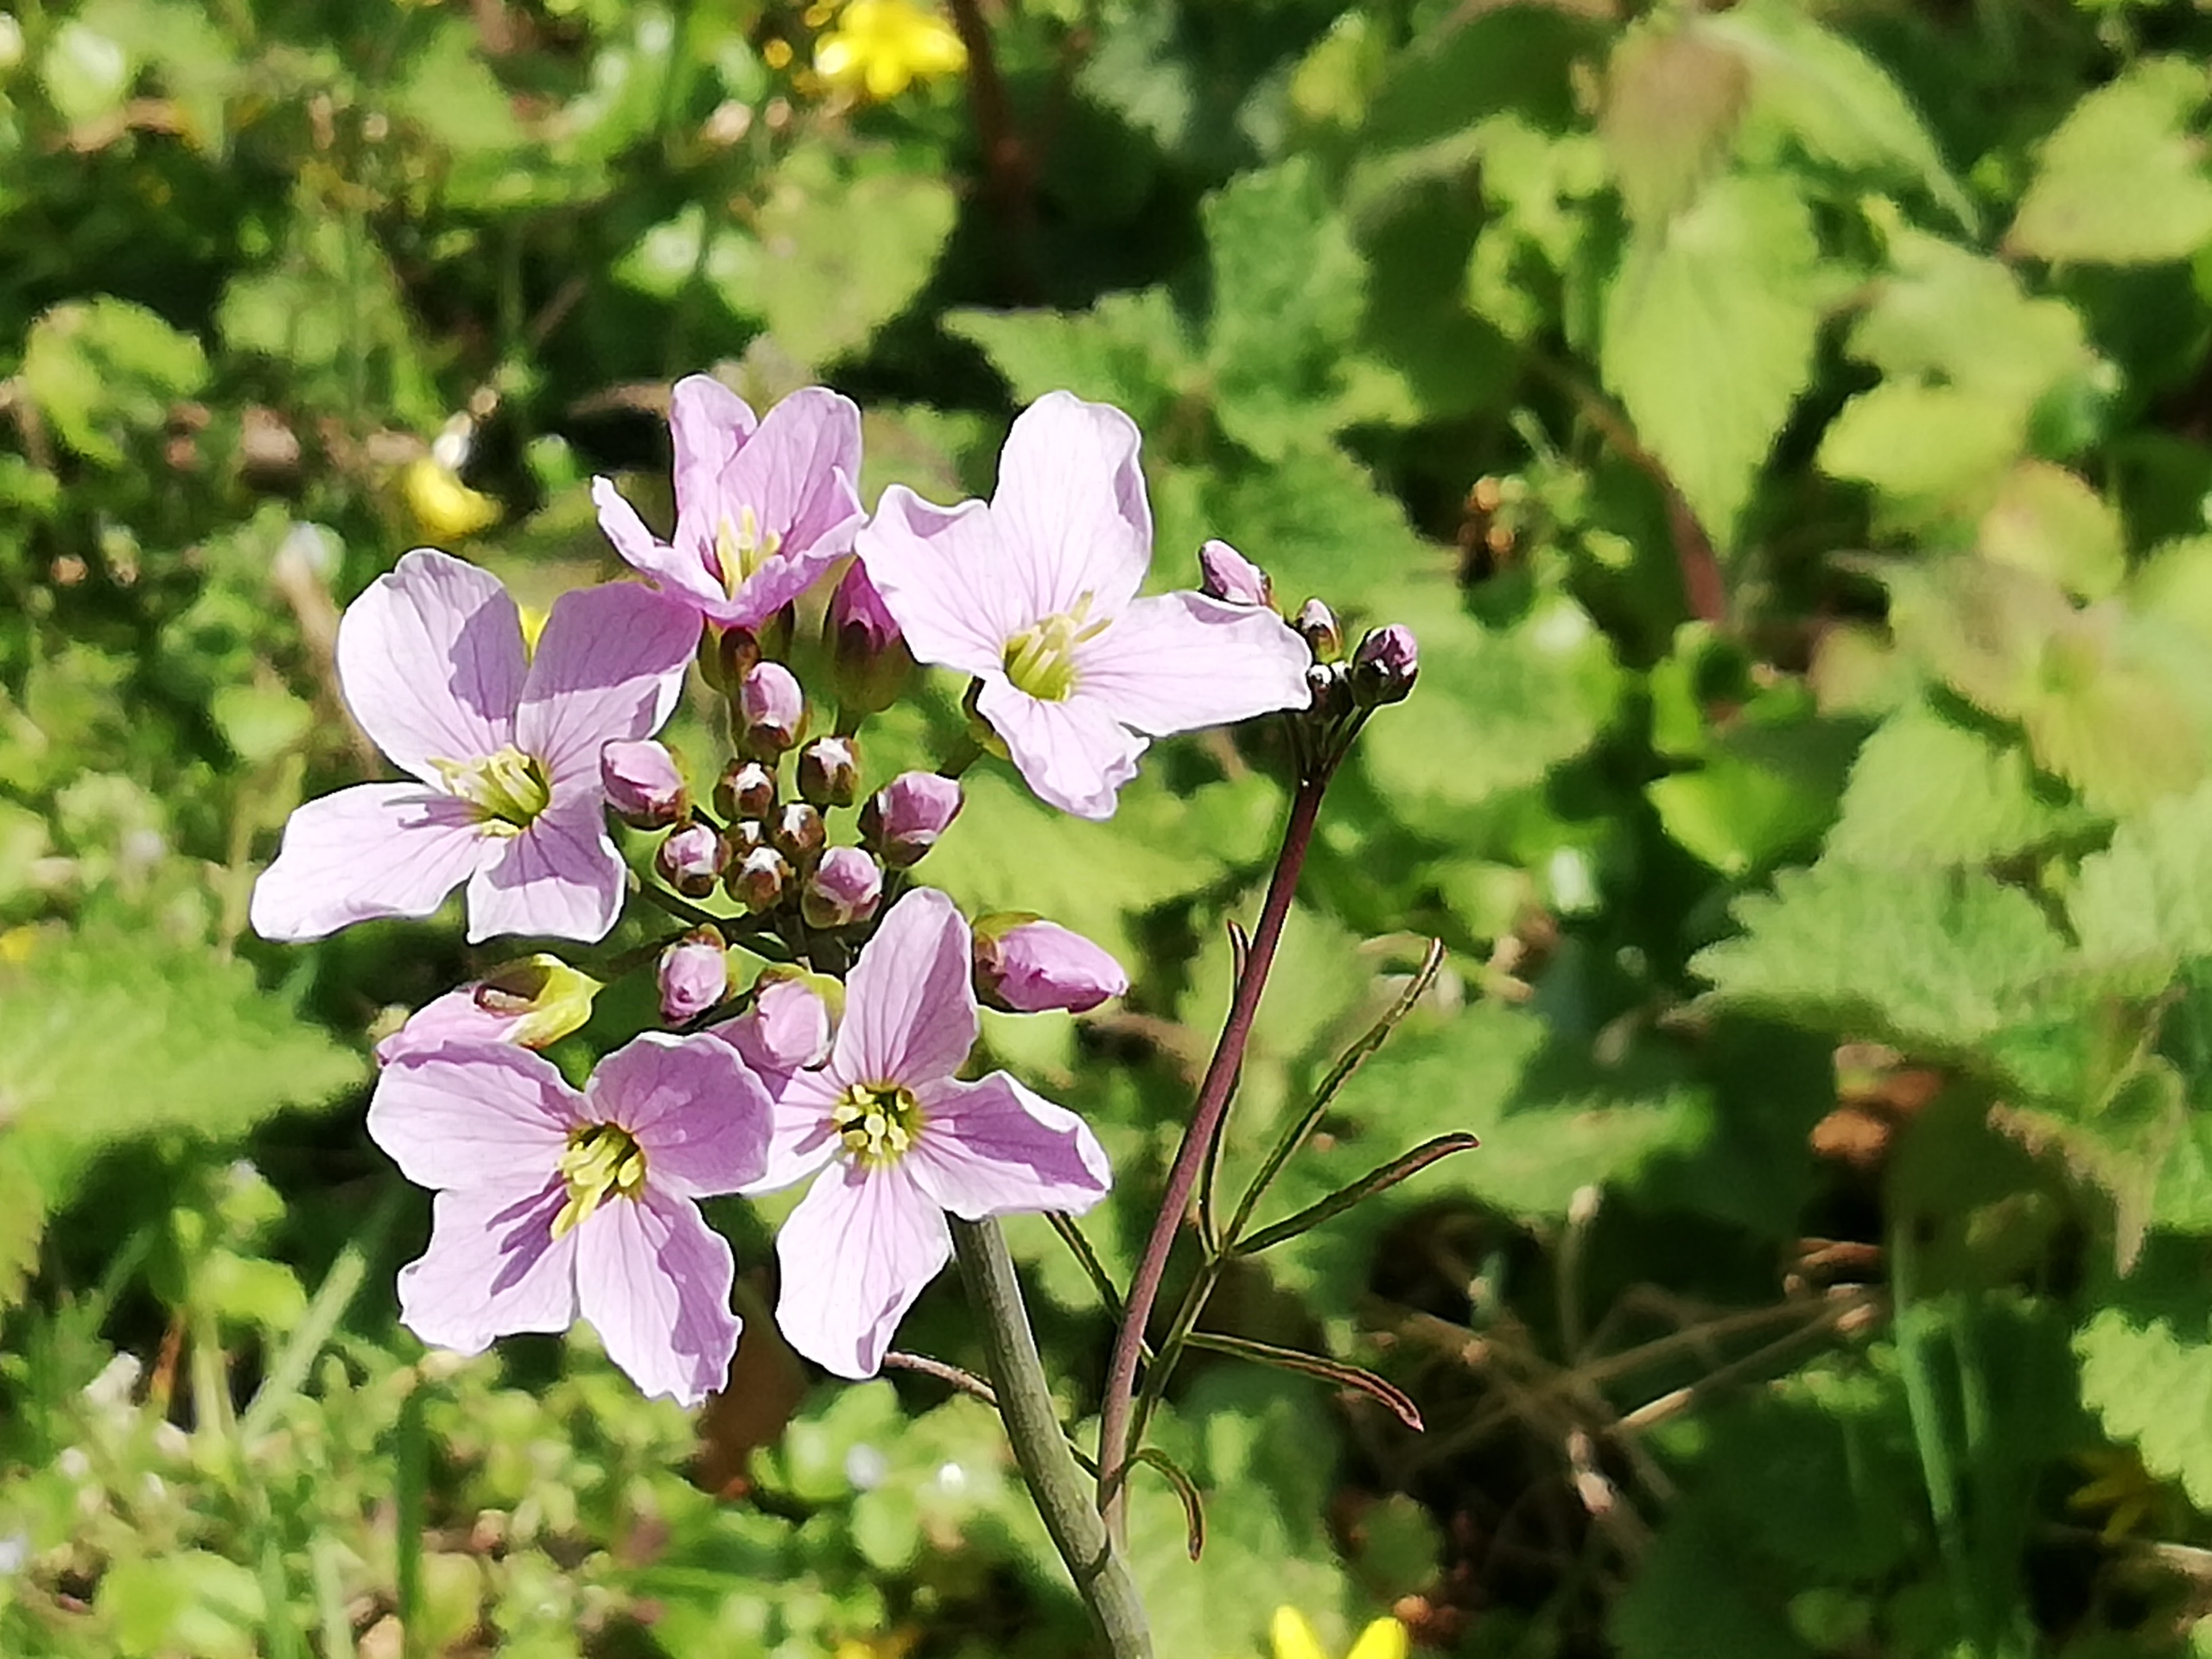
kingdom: Plantae
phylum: Tracheophyta
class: Magnoliopsida
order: Brassicales
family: Brassicaceae
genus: Cardamine
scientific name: Cardamine pratensis
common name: Engkarse
